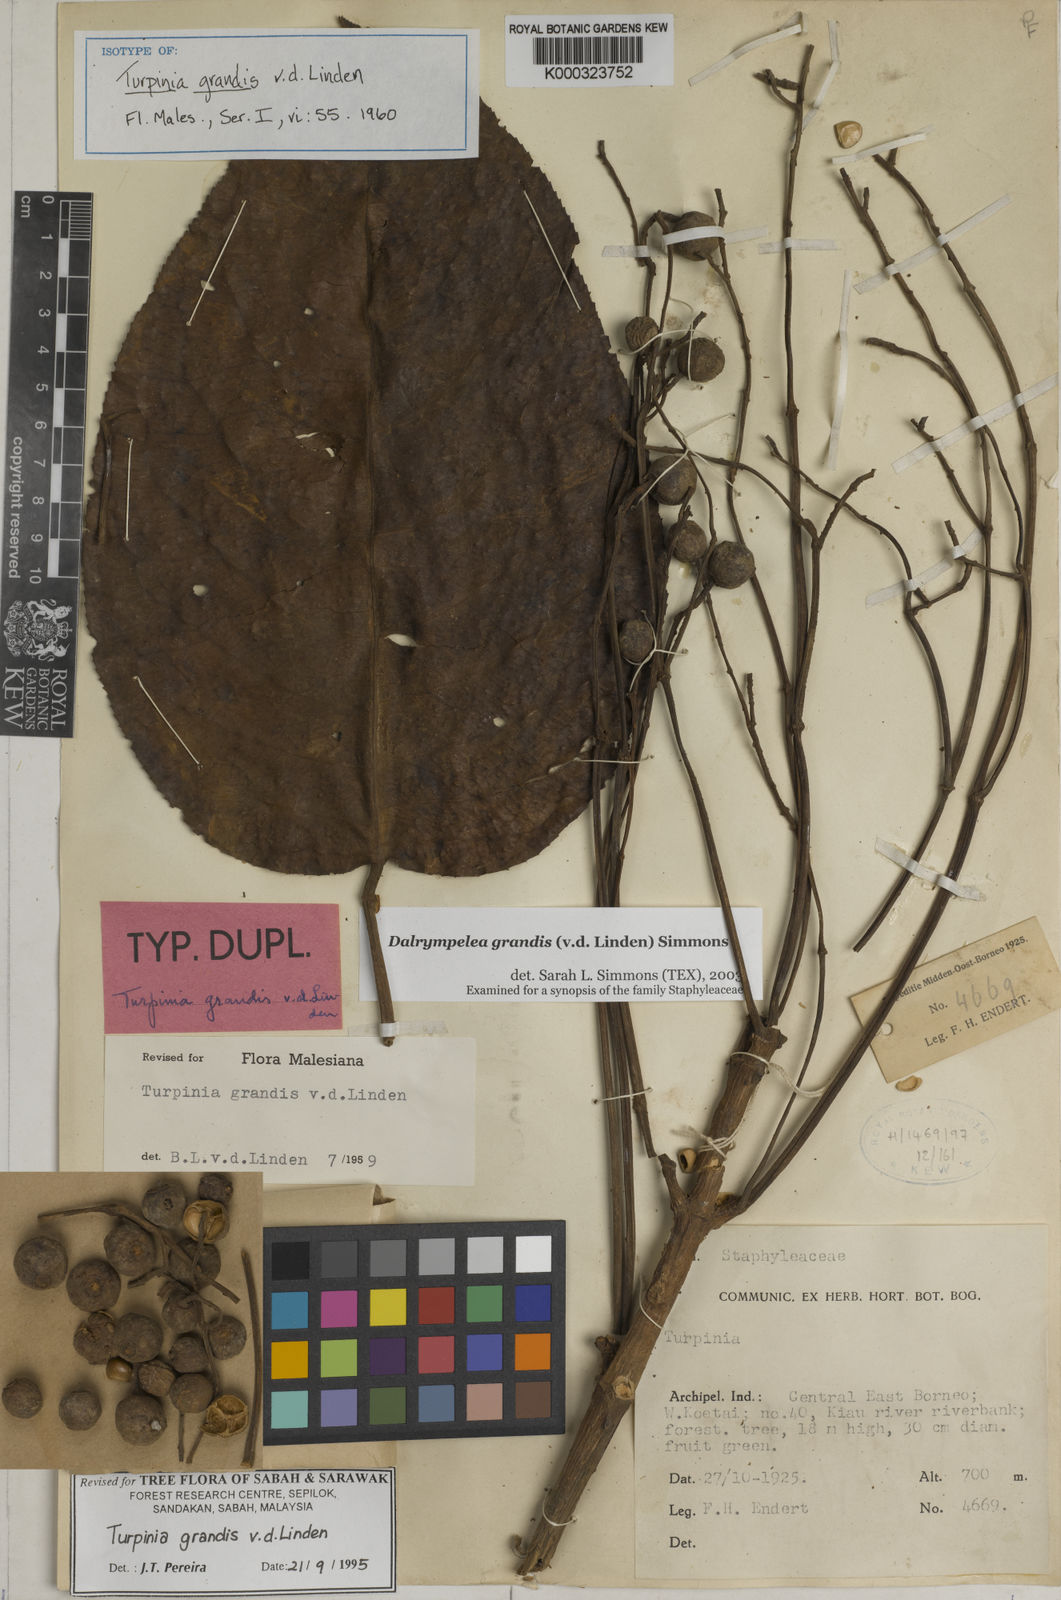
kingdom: Plantae
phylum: Tracheophyta
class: Magnoliopsida
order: Crossosomatales
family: Staphyleaceae
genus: Dalrympelea
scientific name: Dalrympelea grandis
